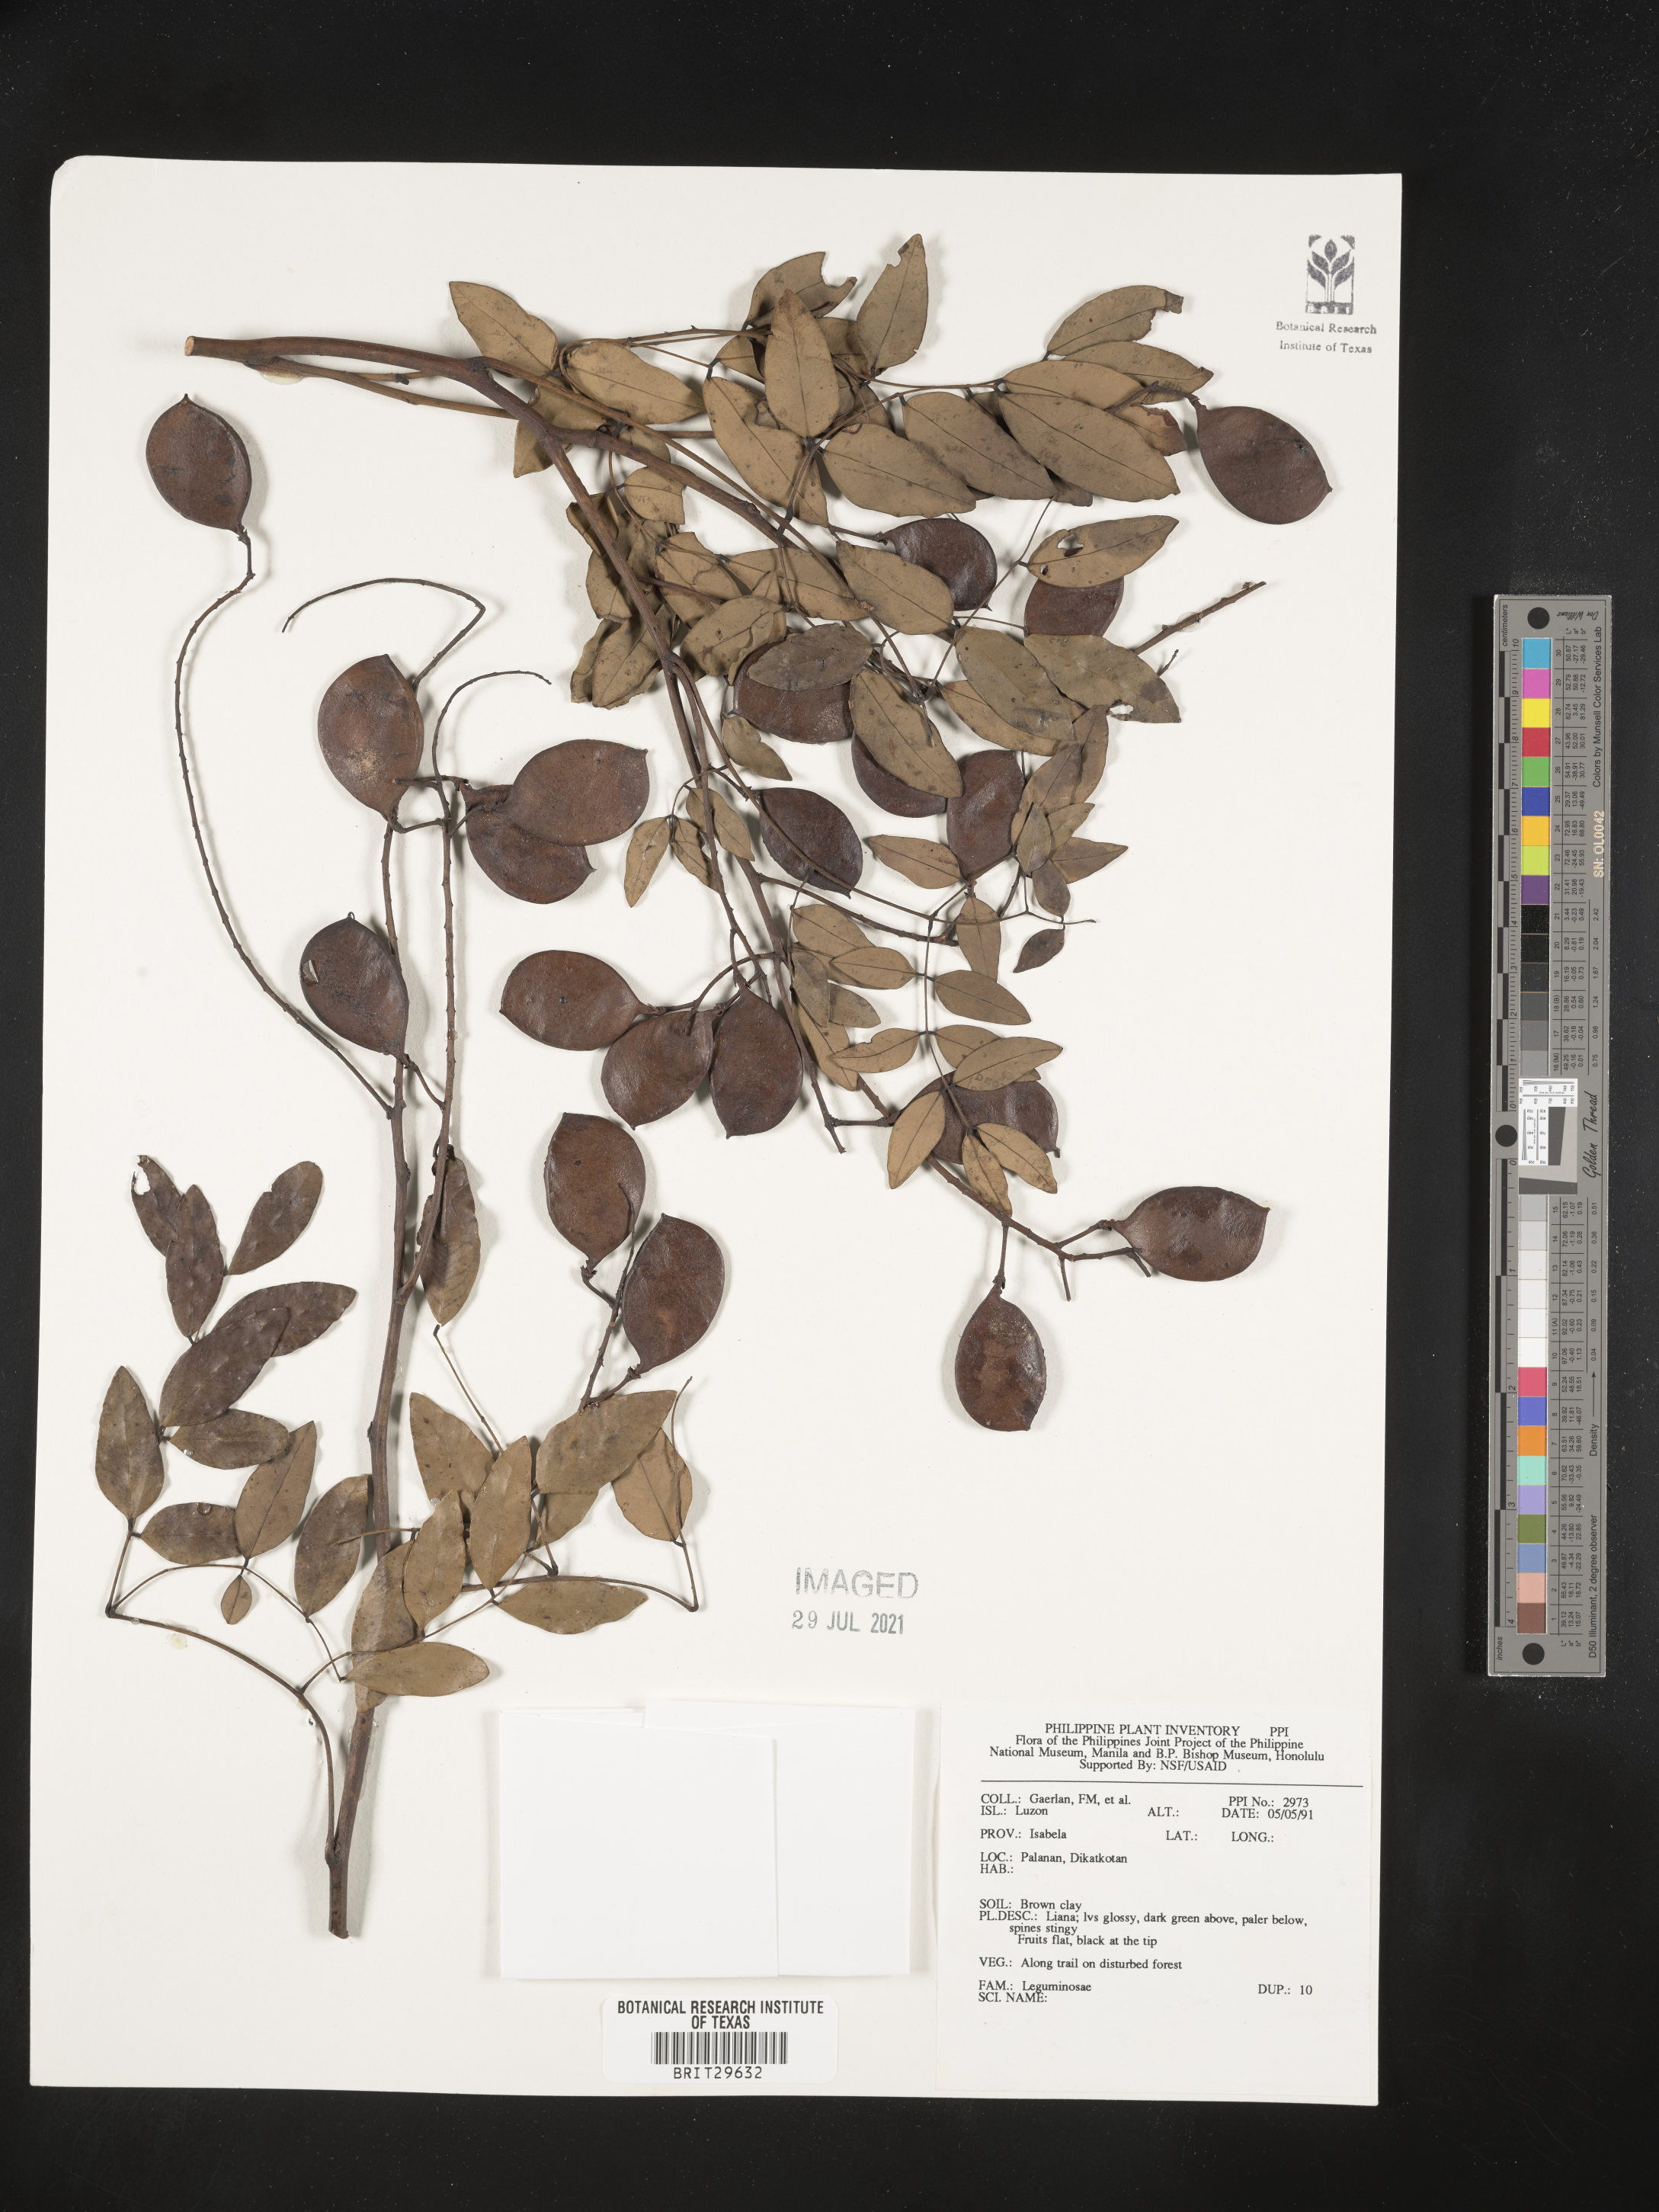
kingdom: Plantae
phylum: Tracheophyta
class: Magnoliopsida
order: Fabales
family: Fabaceae
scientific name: Fabaceae
